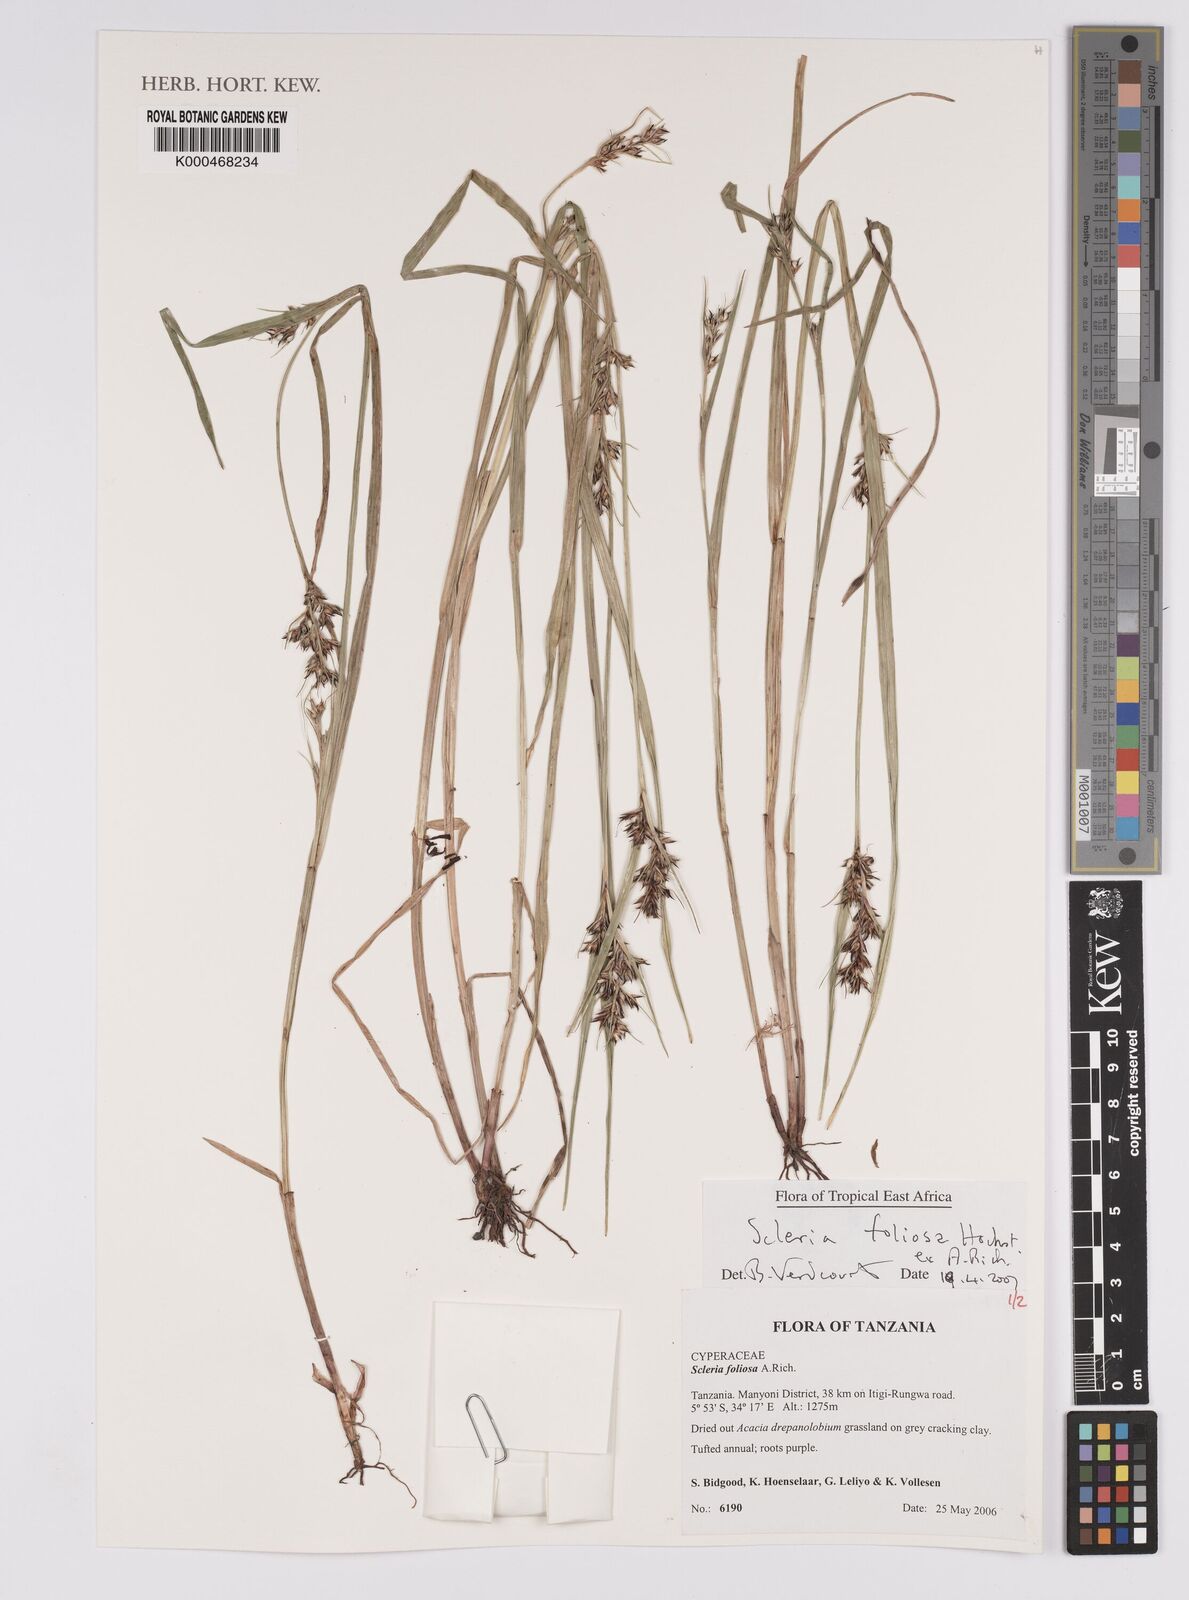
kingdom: Plantae
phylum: Tracheophyta
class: Liliopsida
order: Poales
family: Cyperaceae
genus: Scleria
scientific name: Scleria foliosa
